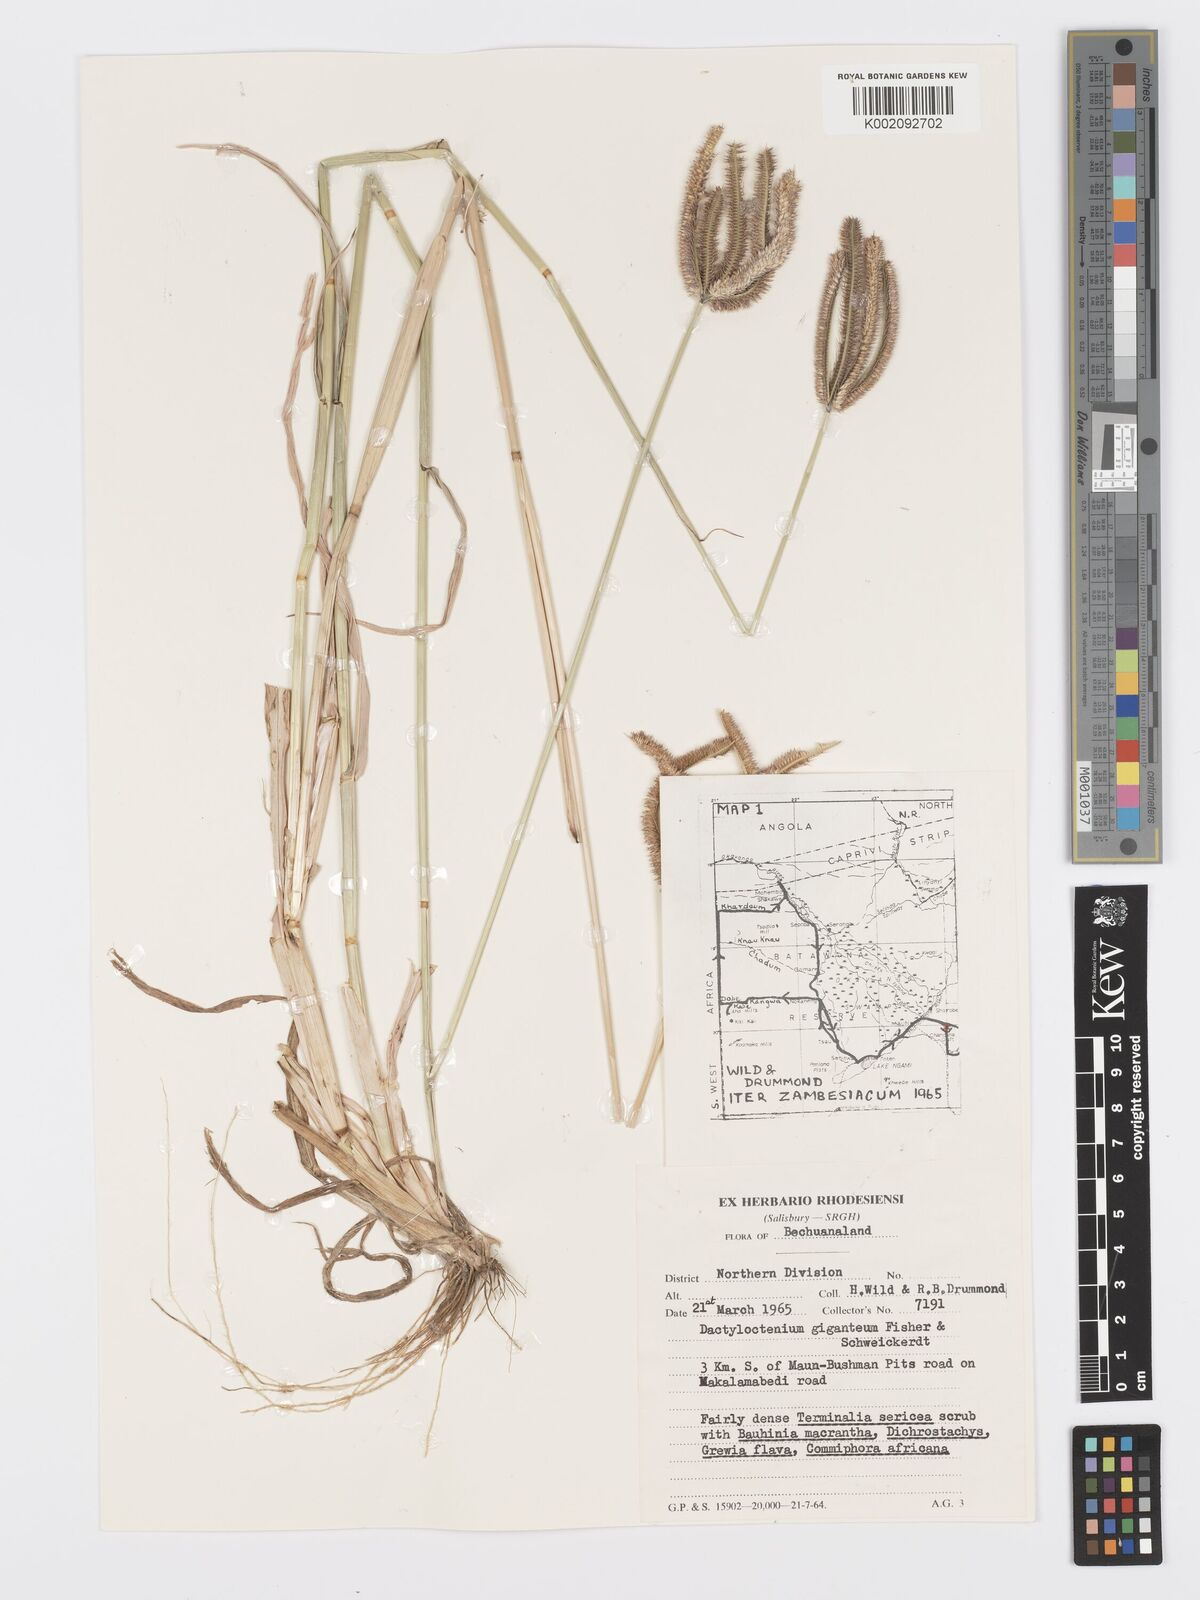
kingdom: Plantae
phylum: Tracheophyta
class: Liliopsida
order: Poales
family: Poaceae
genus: Dactyloctenium
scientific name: Dactyloctenium giganteum
